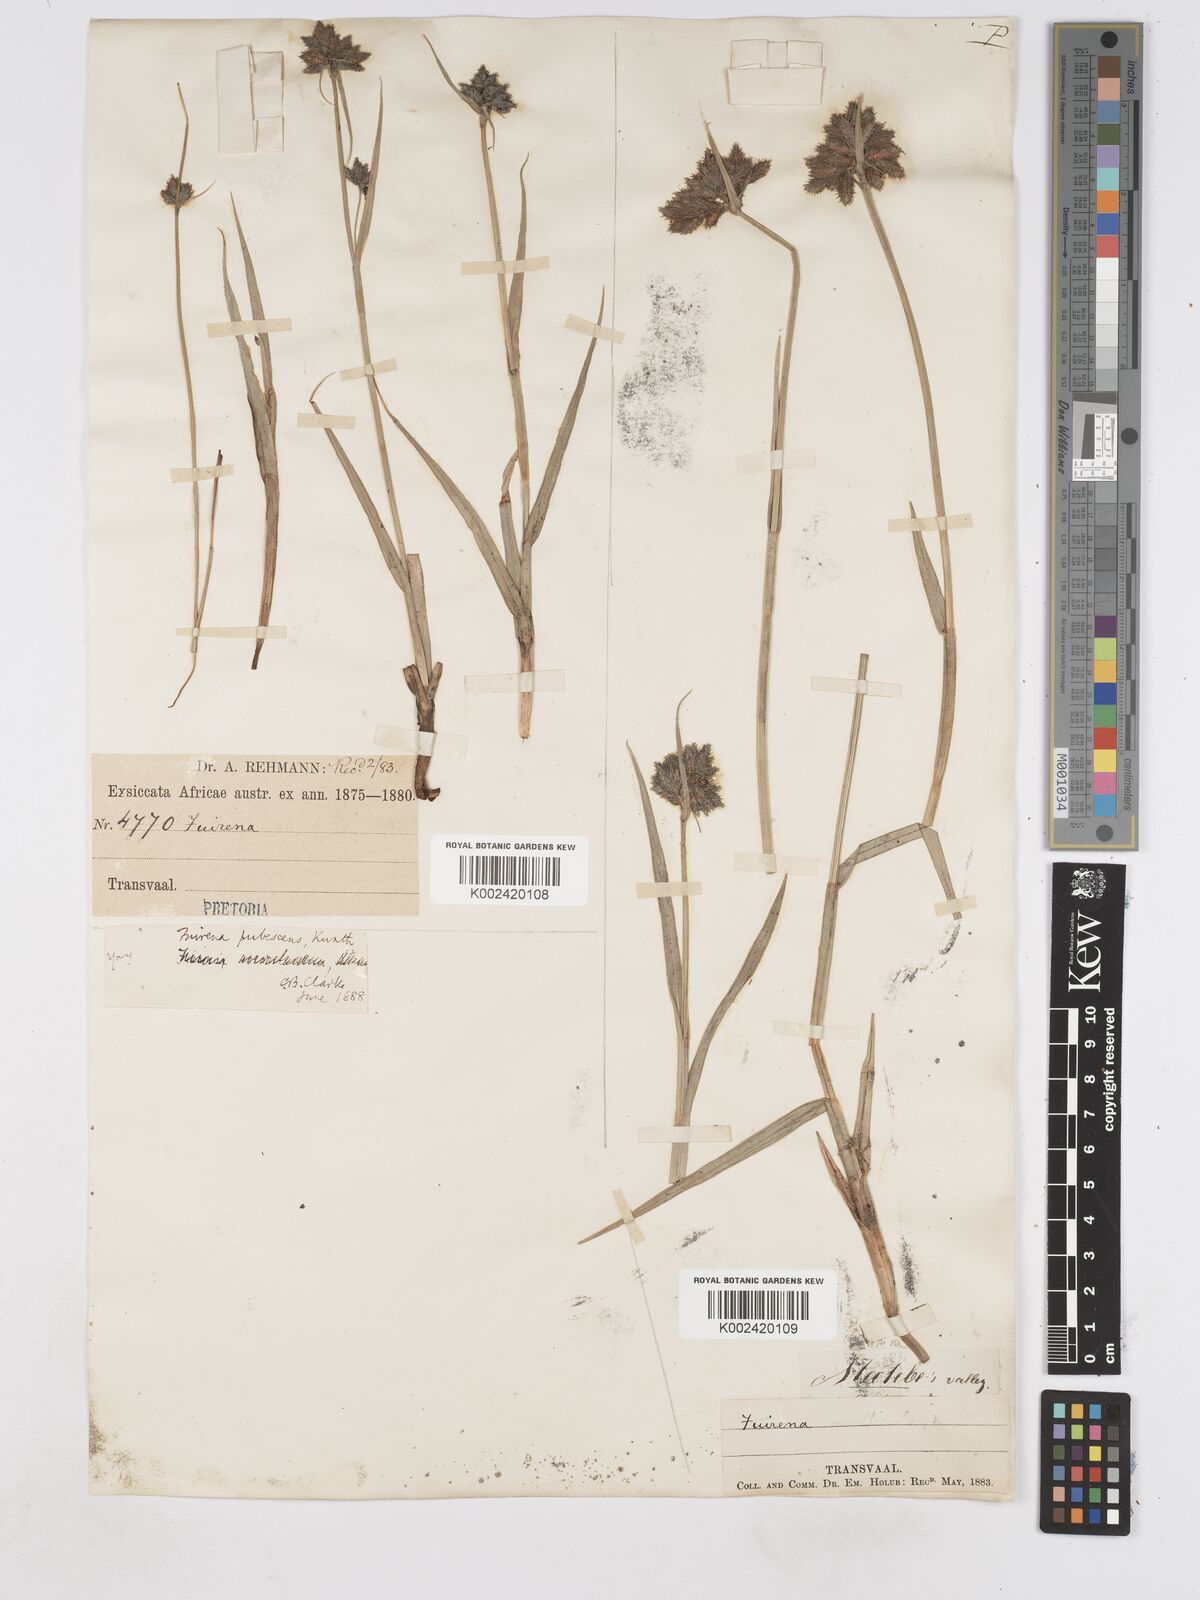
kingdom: Plantae
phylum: Tracheophyta
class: Liliopsida
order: Poales
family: Cyperaceae
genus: Fuirena
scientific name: Fuirena pubescens
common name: Hairy sedge
